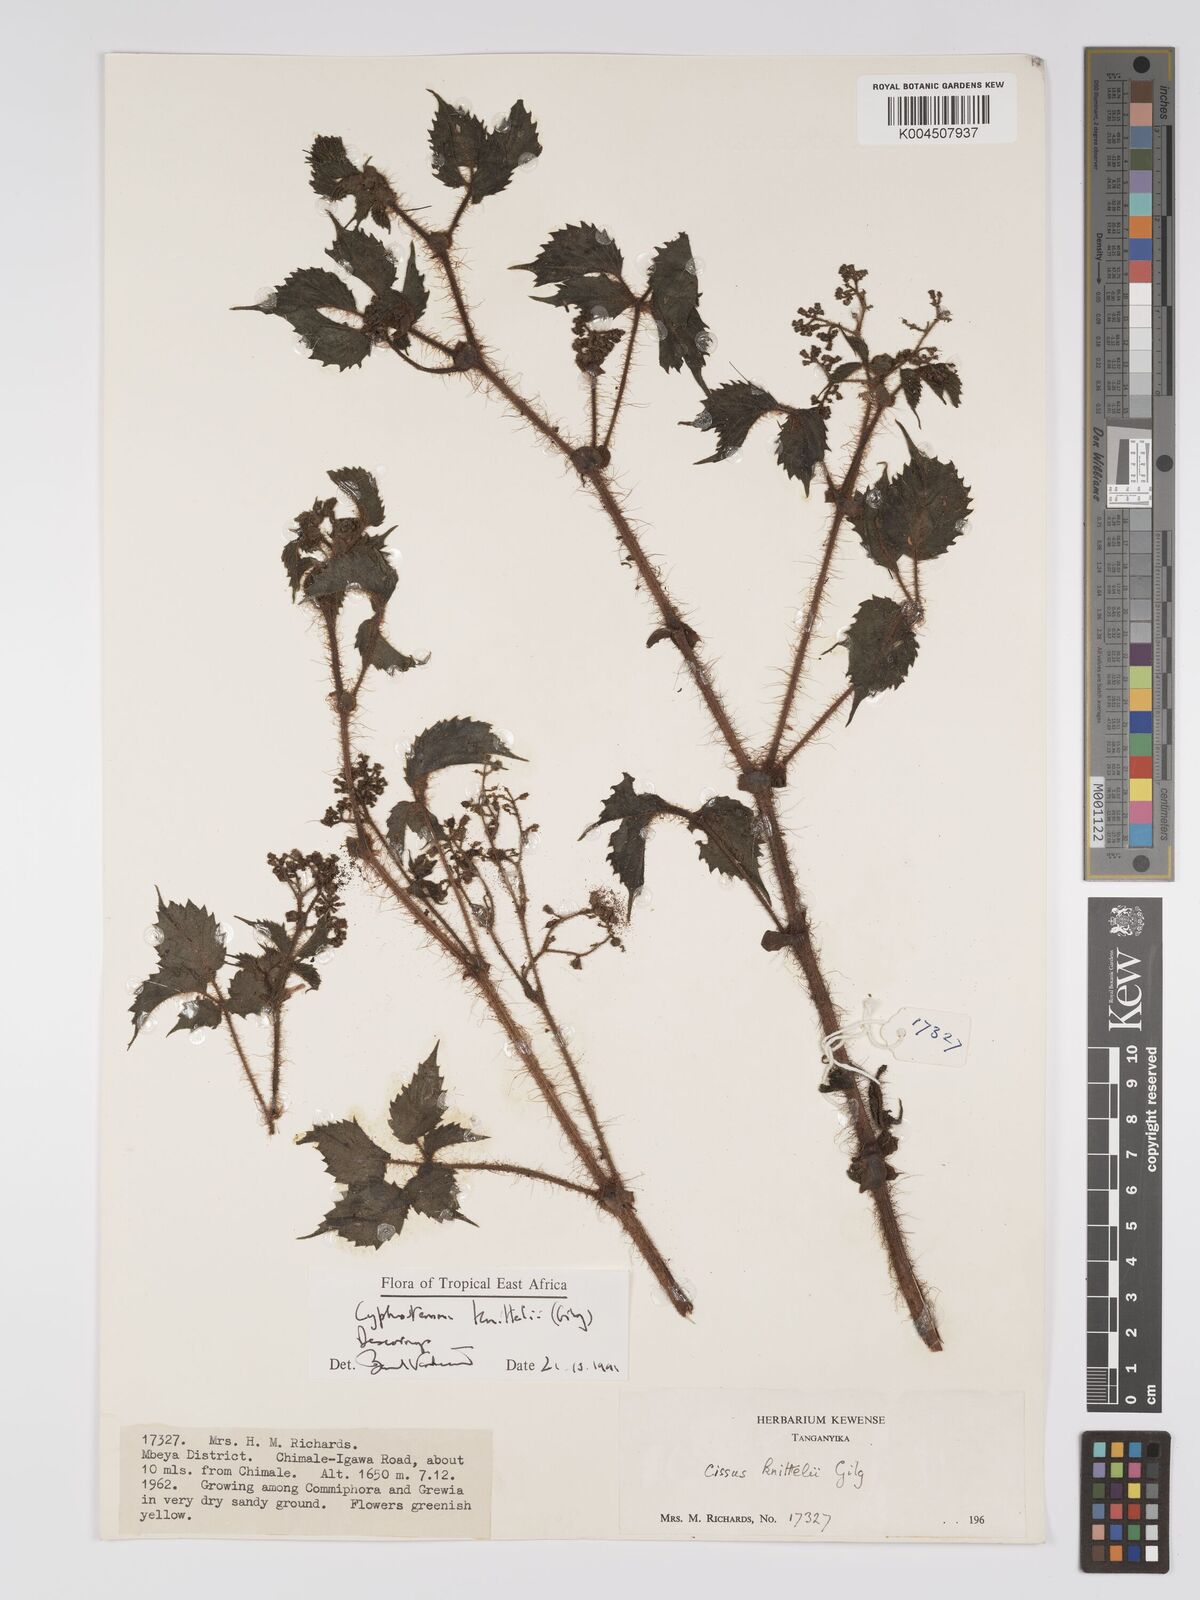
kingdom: Plantae
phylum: Tracheophyta
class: Magnoliopsida
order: Vitales
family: Vitaceae
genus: Cyphostemma
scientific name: Cyphostemma knittelii
